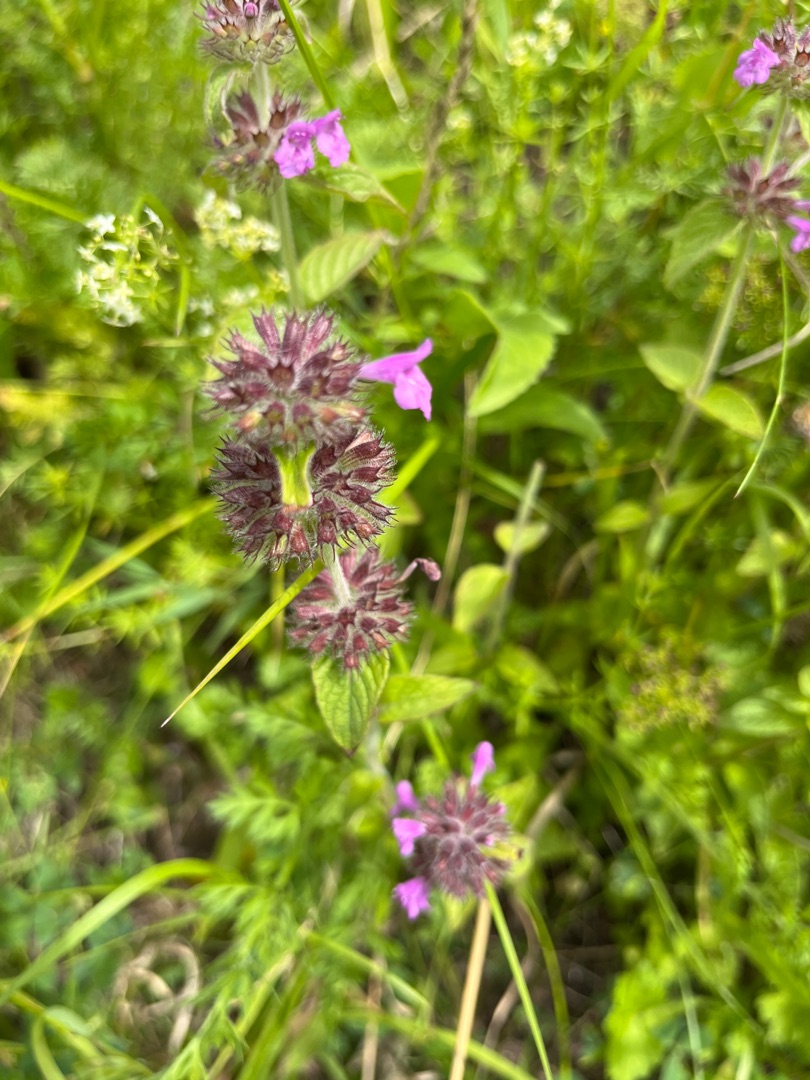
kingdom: Plantae
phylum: Tracheophyta
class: Magnoliopsida
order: Lamiales
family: Lamiaceae
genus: Clinopodium
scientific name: Clinopodium vulgare
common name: Kransbørste
